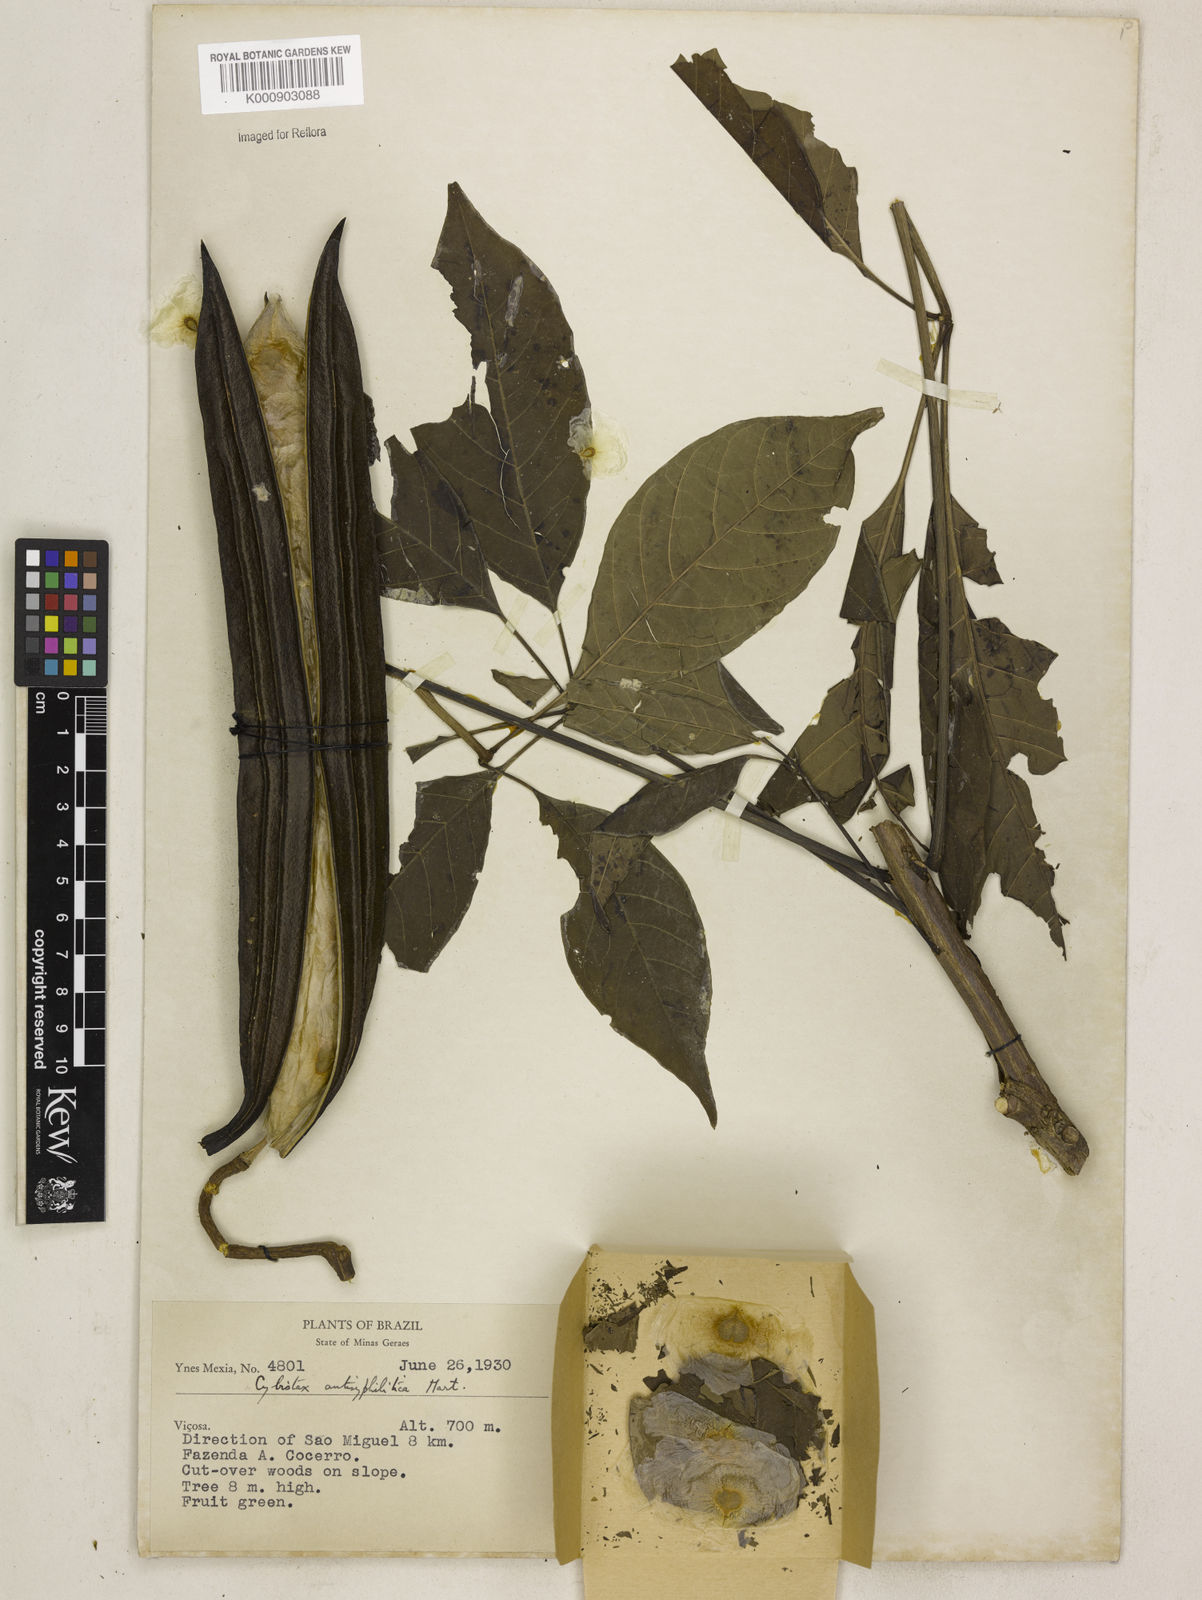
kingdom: Plantae
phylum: Tracheophyta
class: Magnoliopsida
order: Lamiales
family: Bignoniaceae
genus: Cybistax
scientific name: Cybistax antisyphilitica
